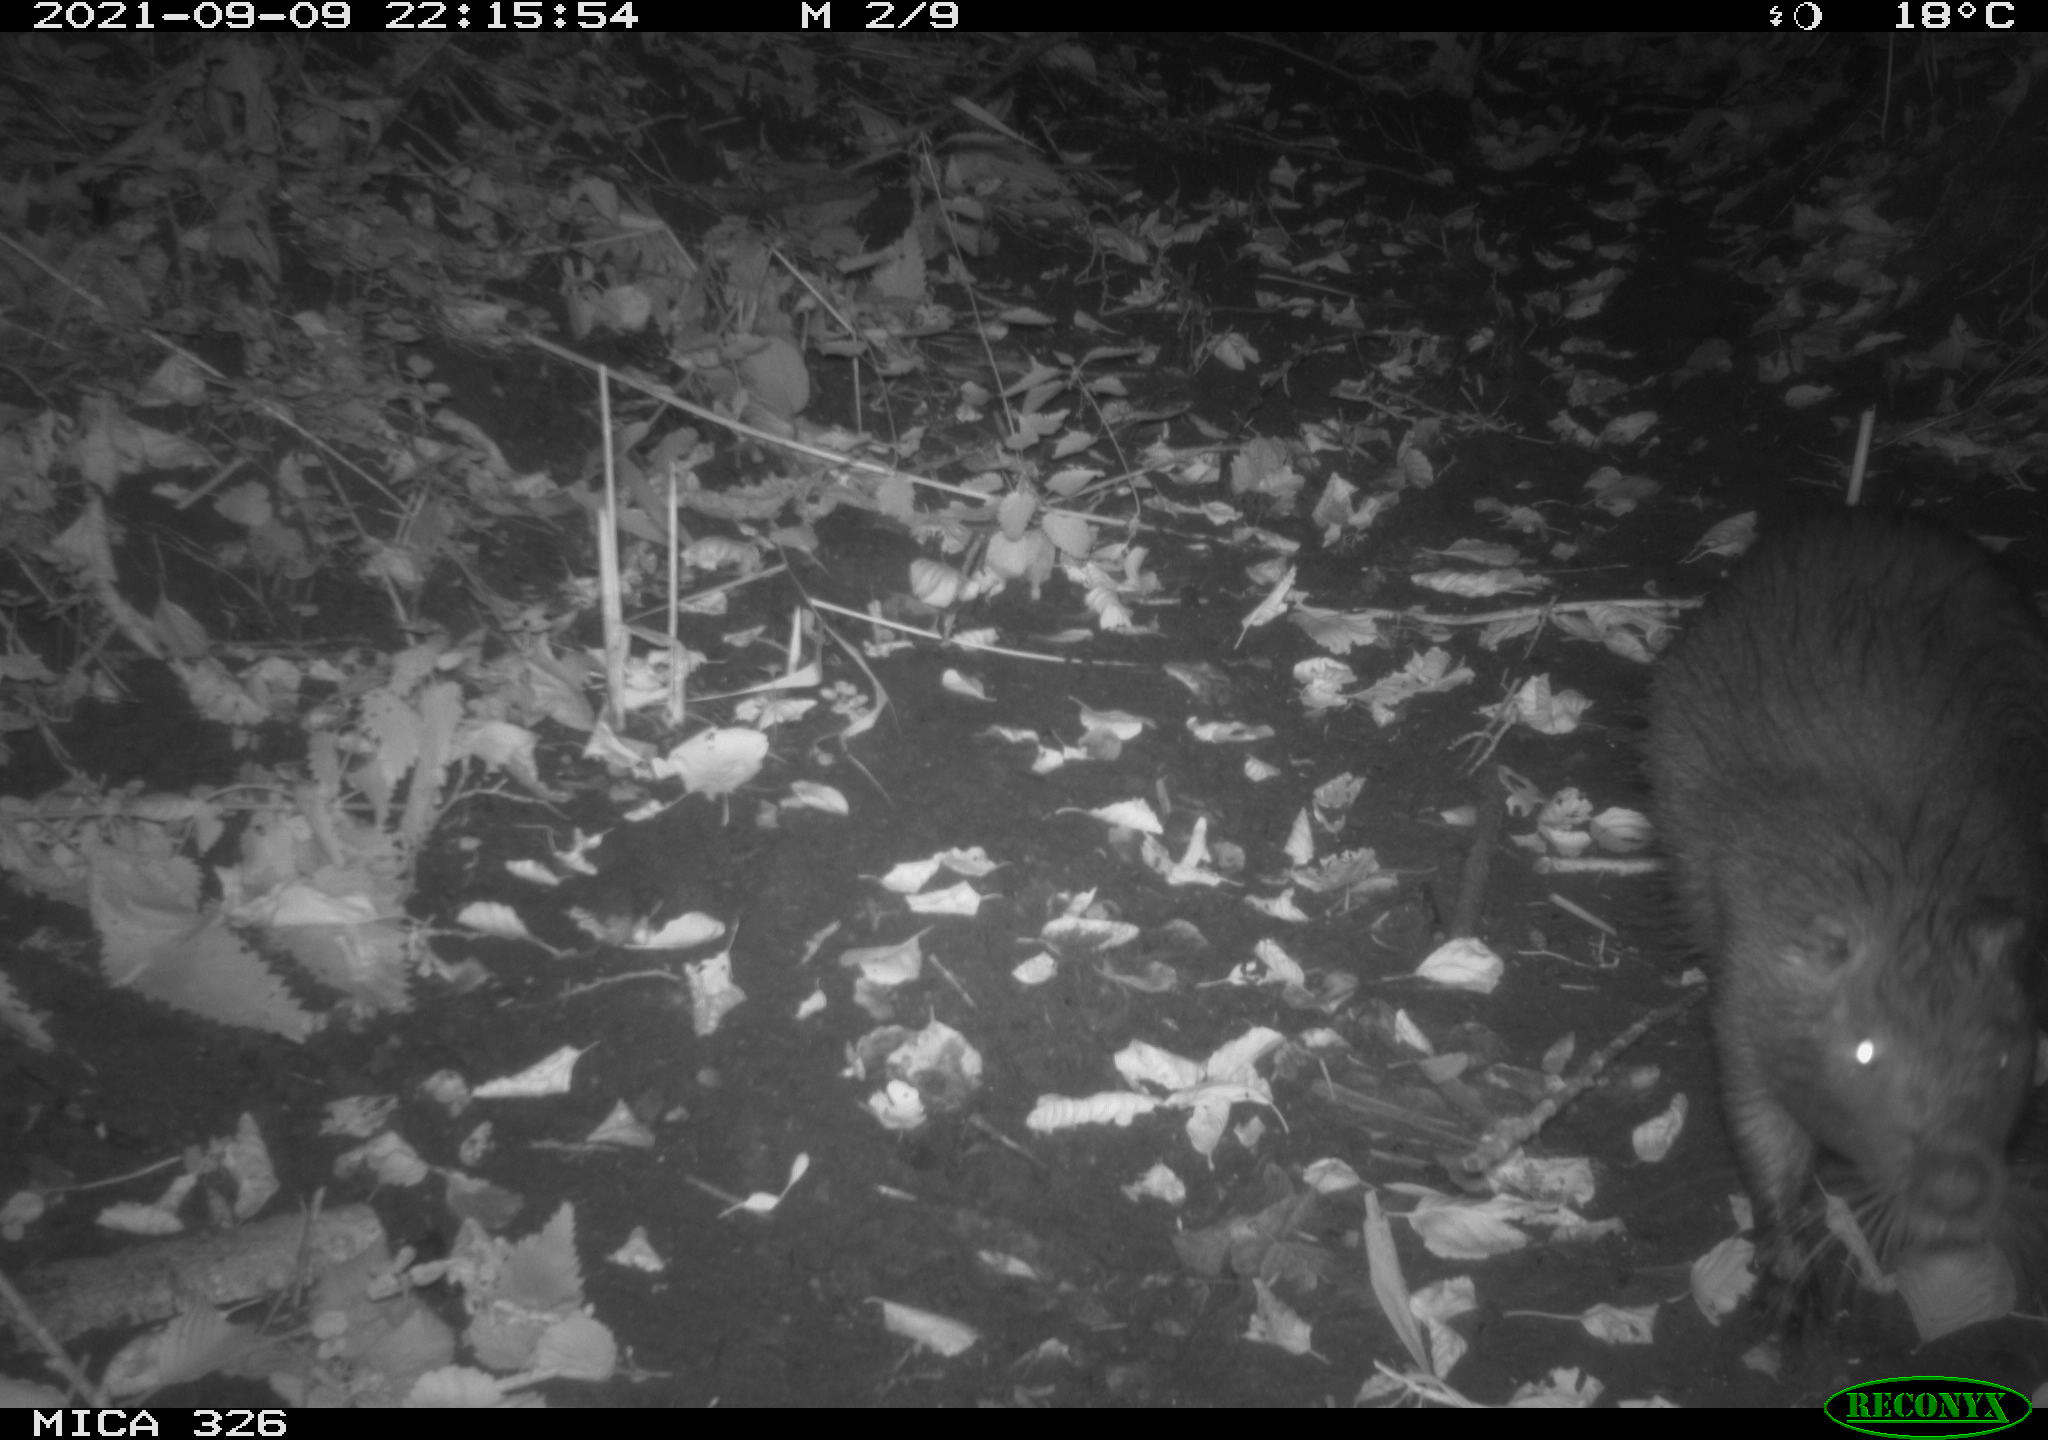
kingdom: Animalia
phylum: Chordata
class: Mammalia
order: Rodentia
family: Myocastoridae
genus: Myocastor
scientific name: Myocastor coypus
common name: Coypu
